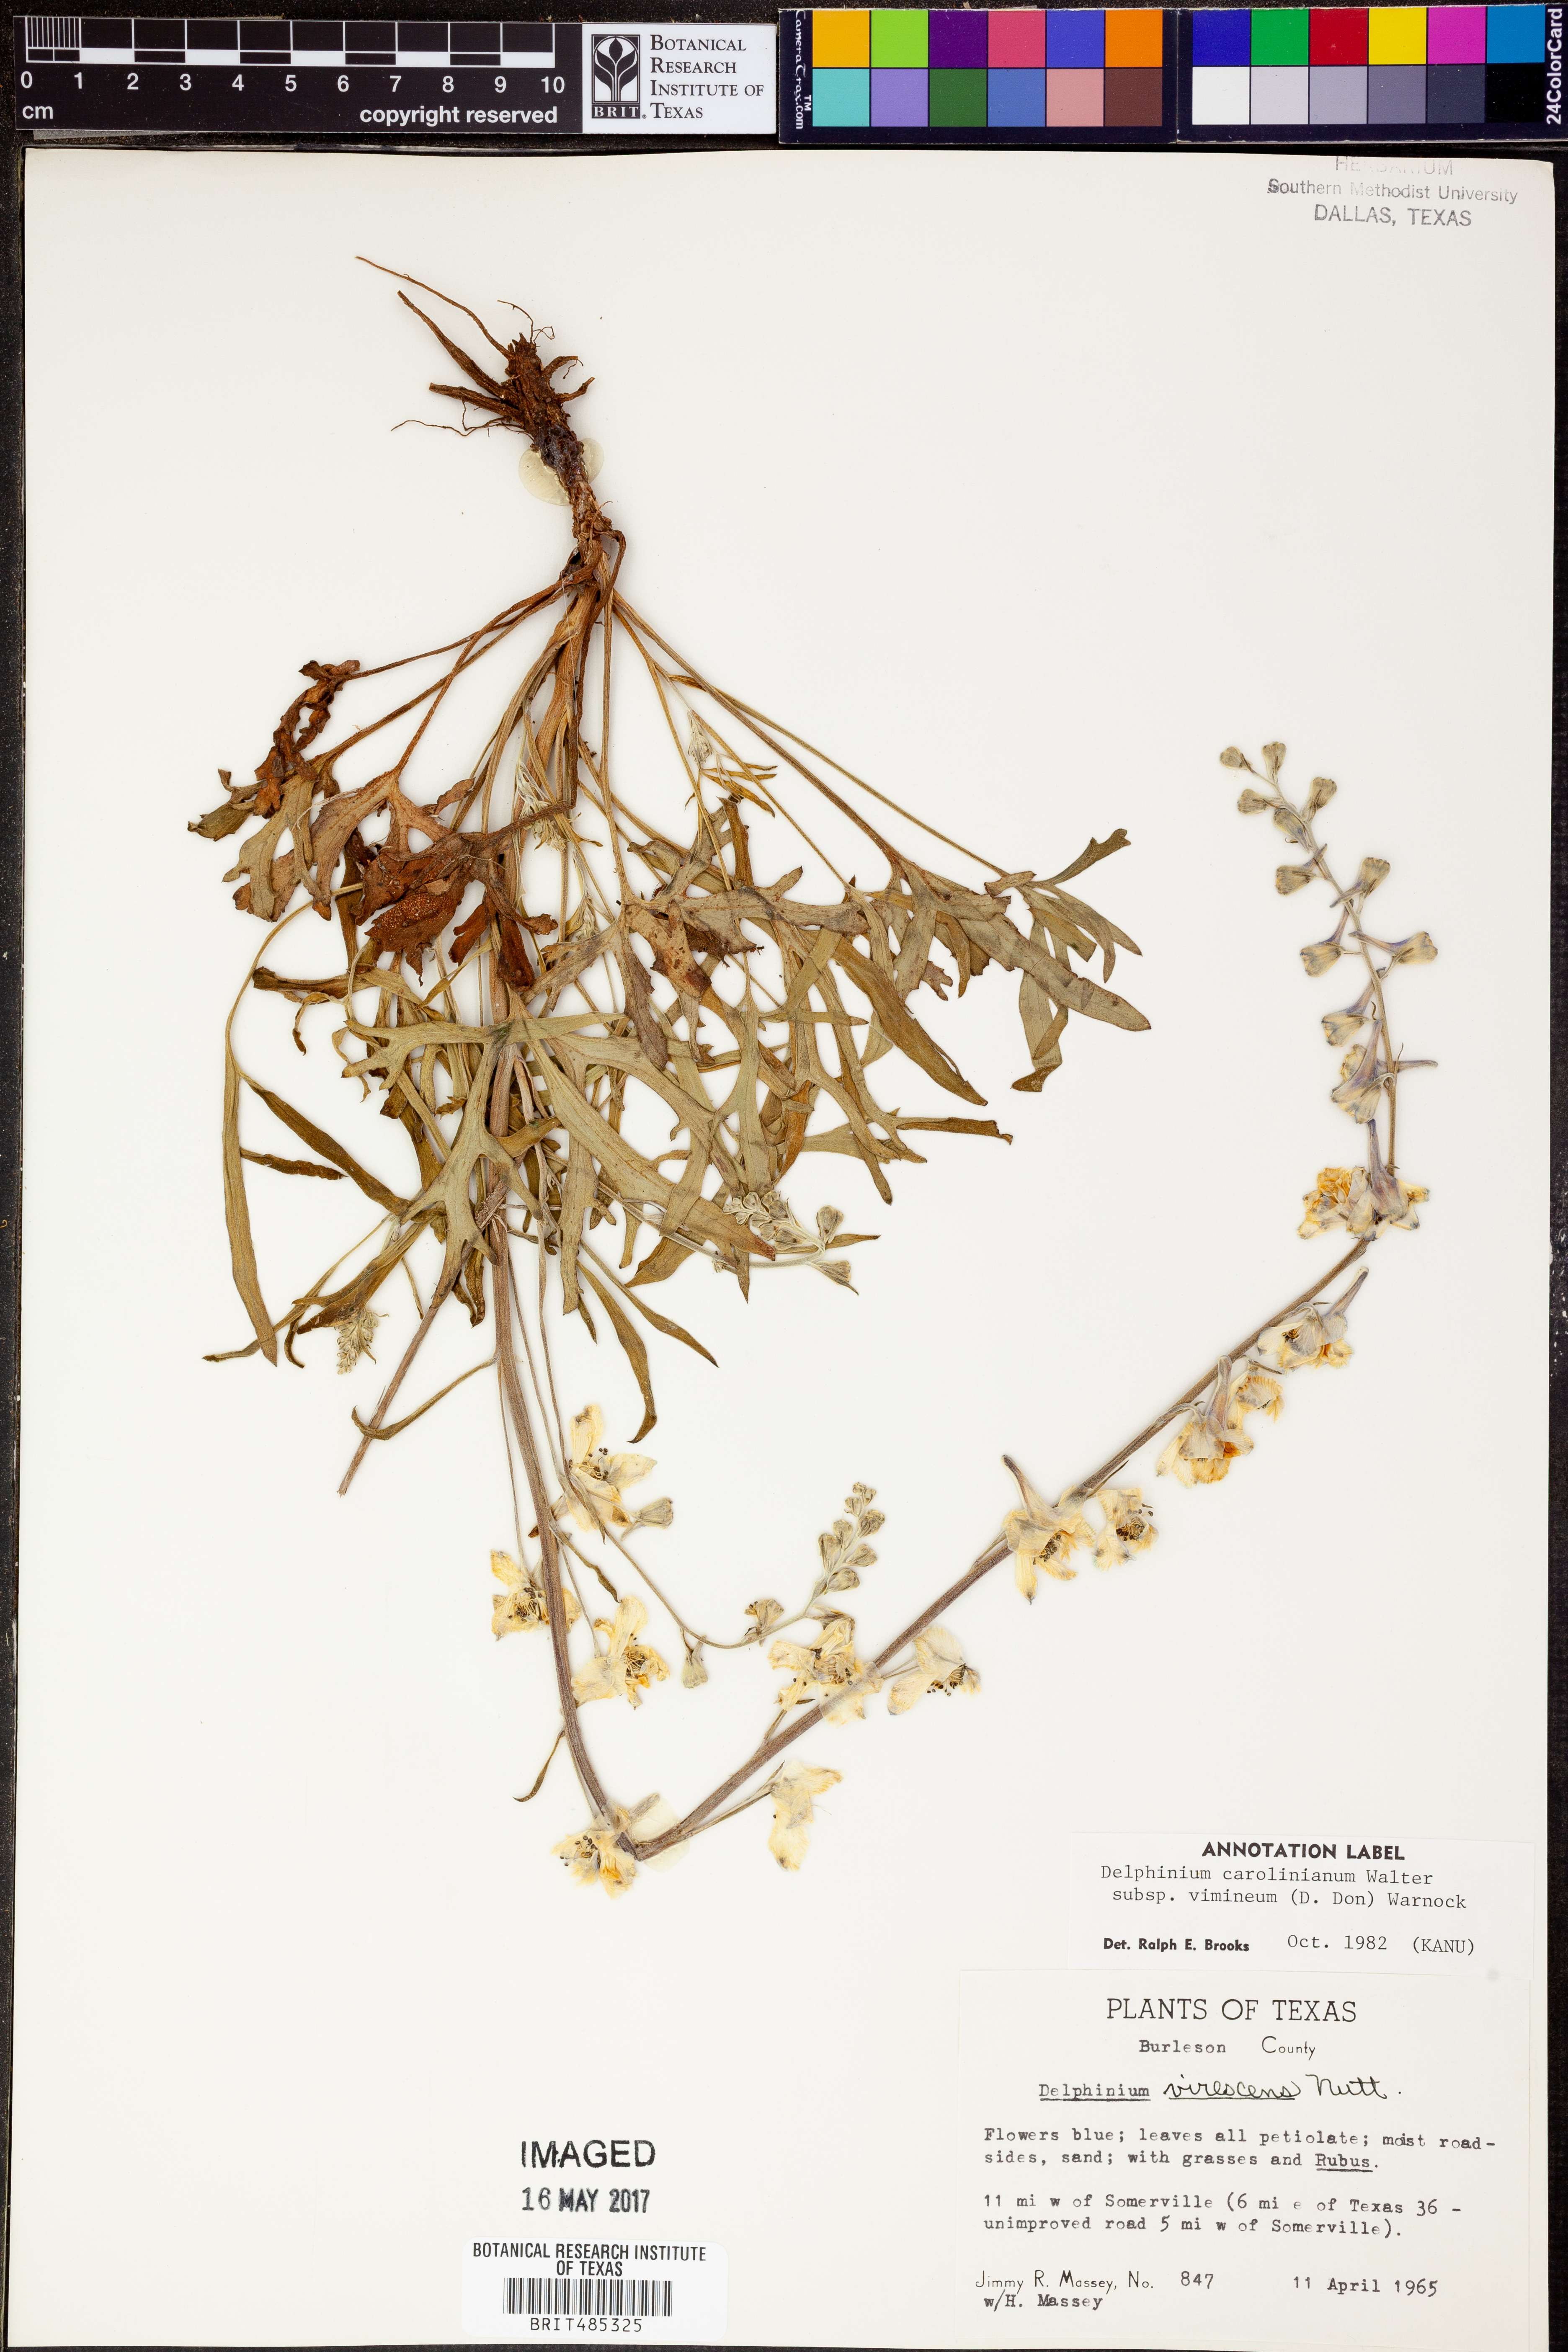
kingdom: Plantae
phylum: Tracheophyta
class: Magnoliopsida
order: Ranunculales
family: Ranunculaceae
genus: Delphinium
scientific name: Delphinium carolinianum
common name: Carolina larkspur
